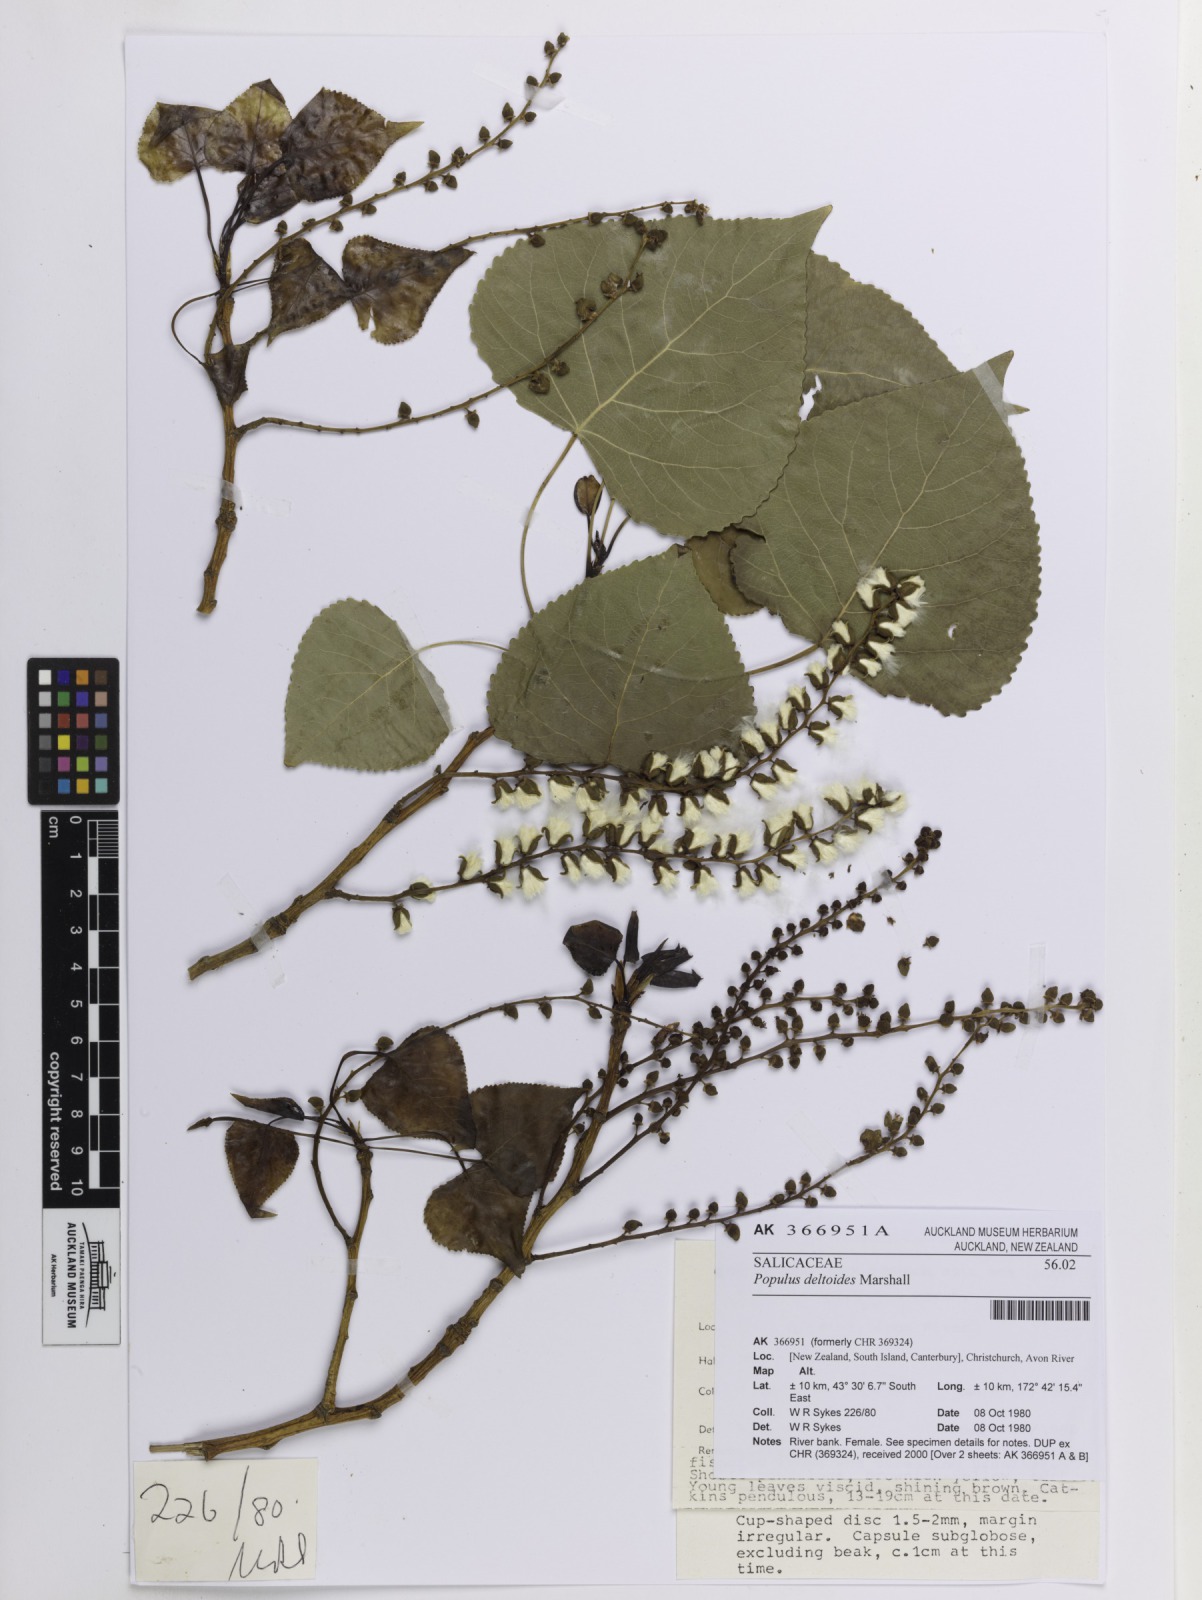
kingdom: Plantae
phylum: Tracheophyta
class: Magnoliopsida
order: Malpighiales
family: Salicaceae
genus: Populus
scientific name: Populus deltoides
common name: Eastern cottonwood
